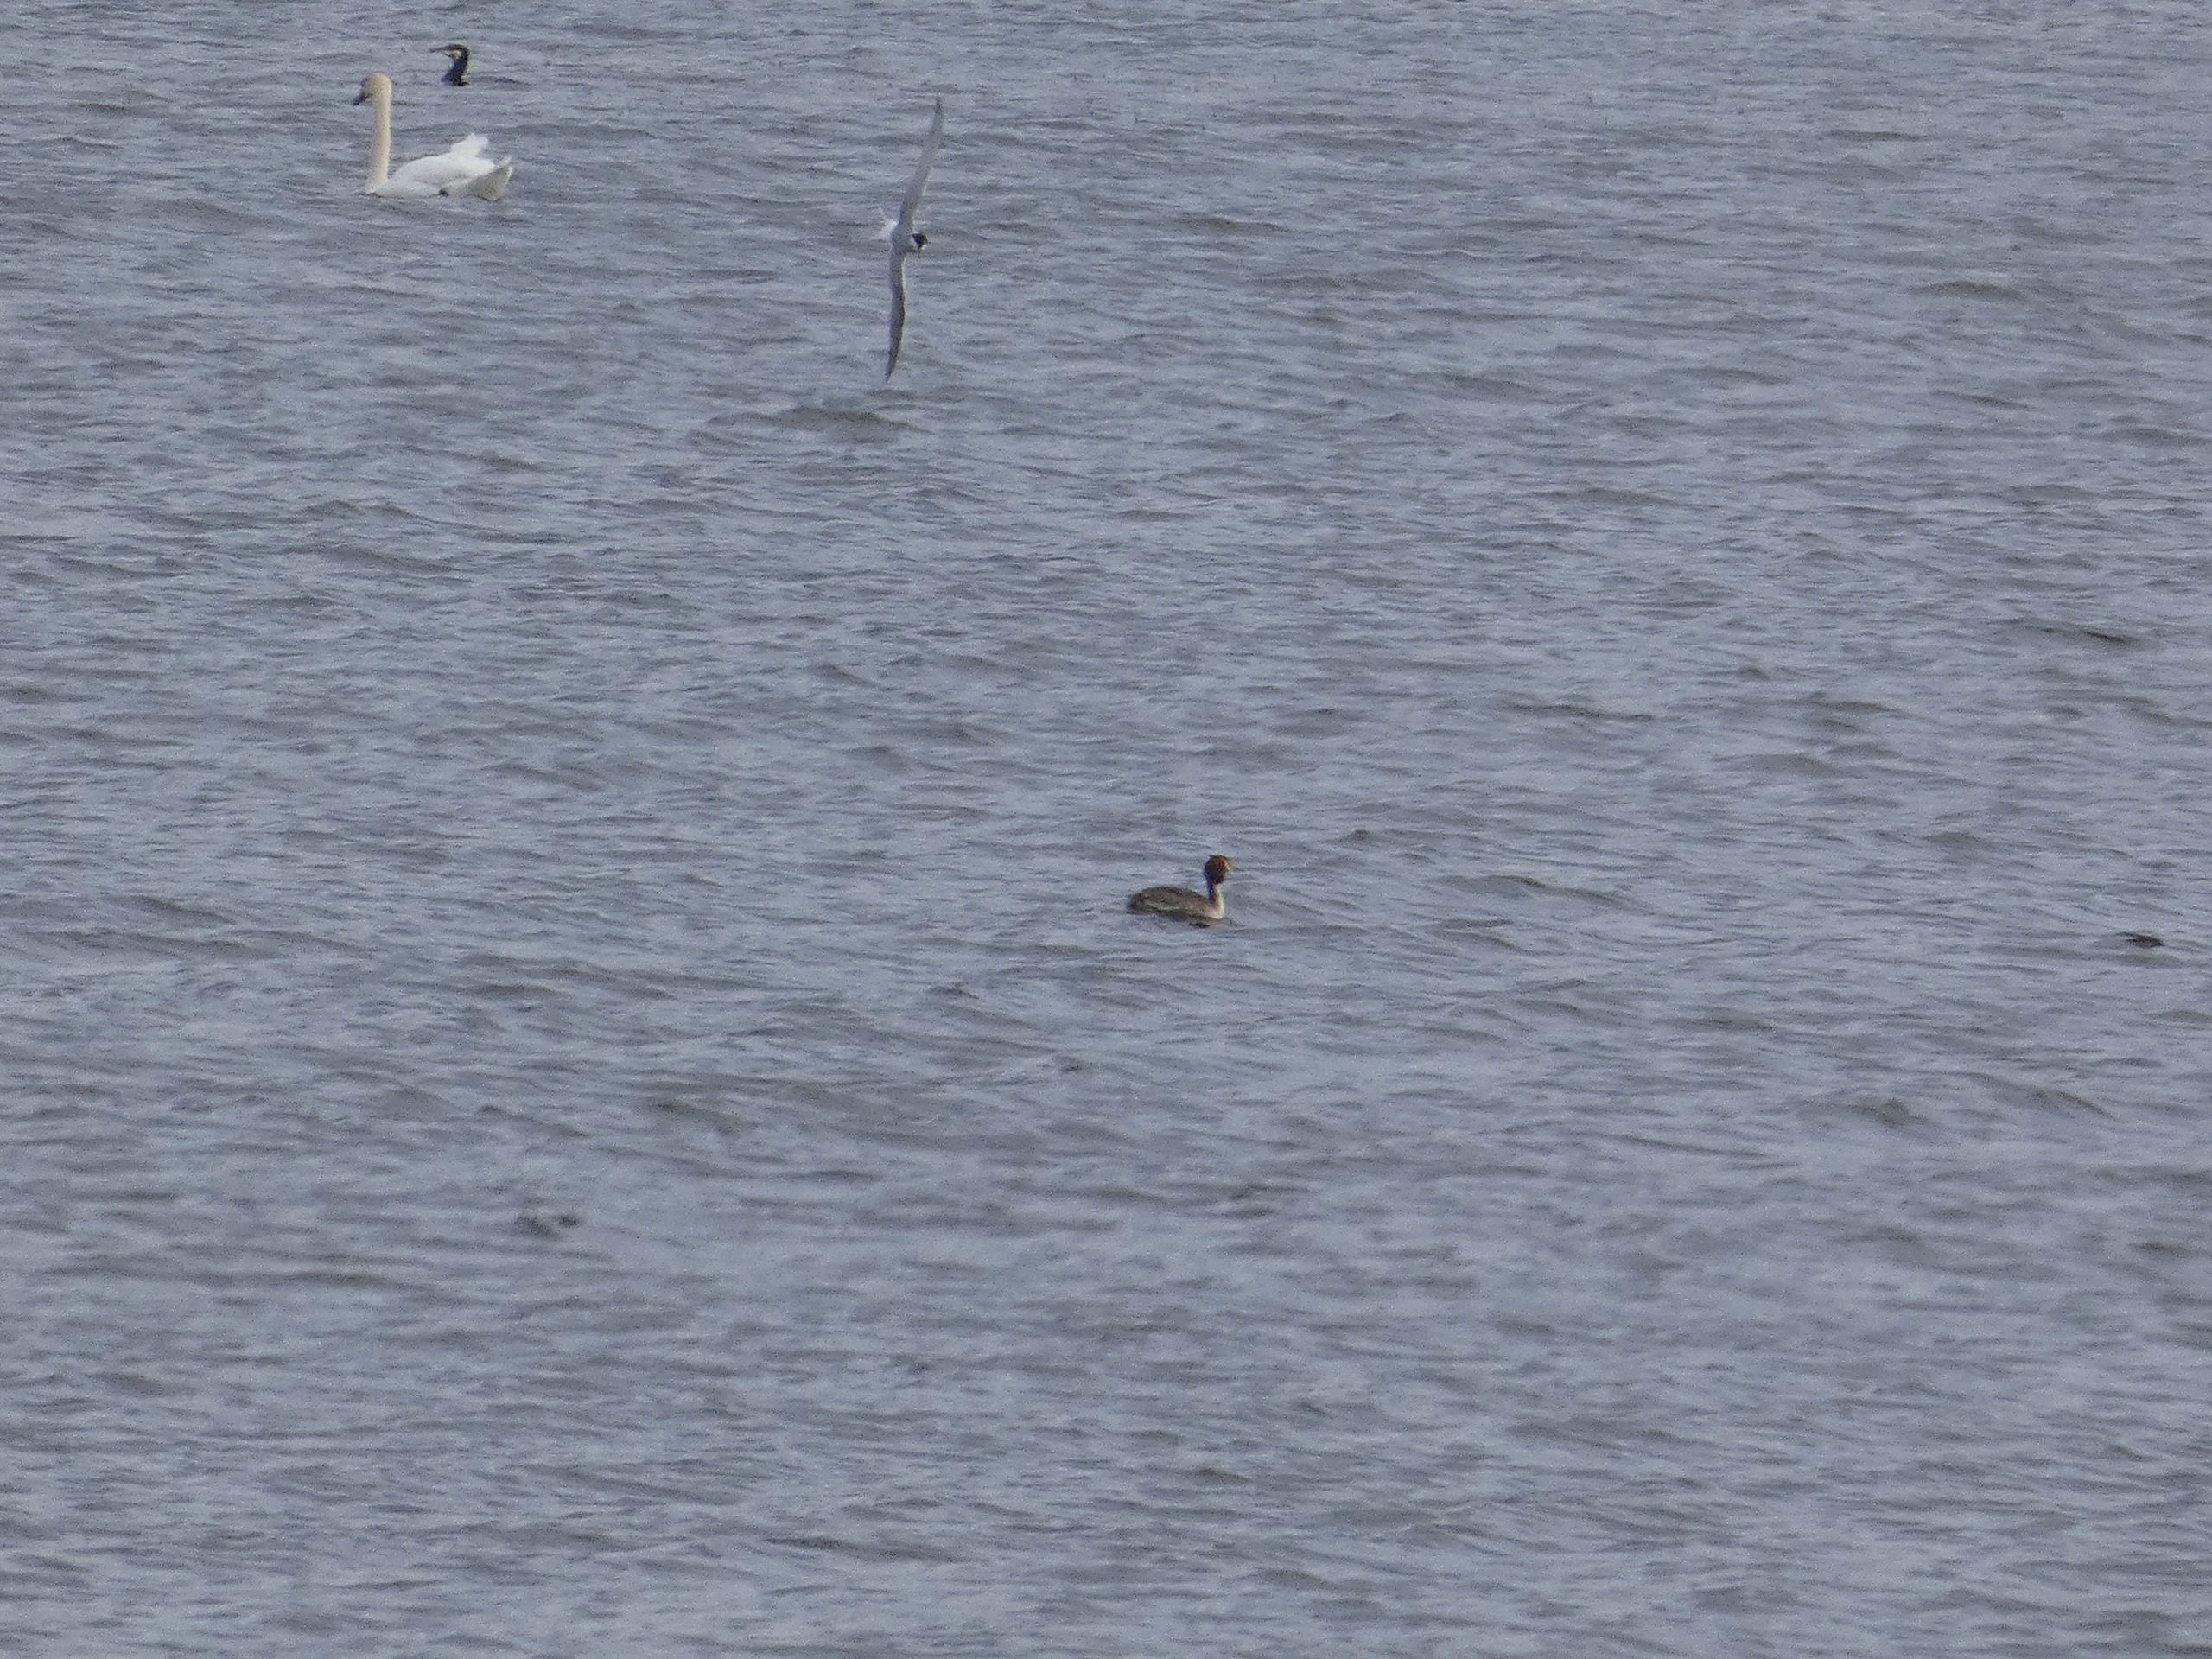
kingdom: Animalia
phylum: Chordata
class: Aves
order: Podicipediformes
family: Podicipedidae
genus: Podiceps
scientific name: Podiceps cristatus
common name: Toppet lappedykker
